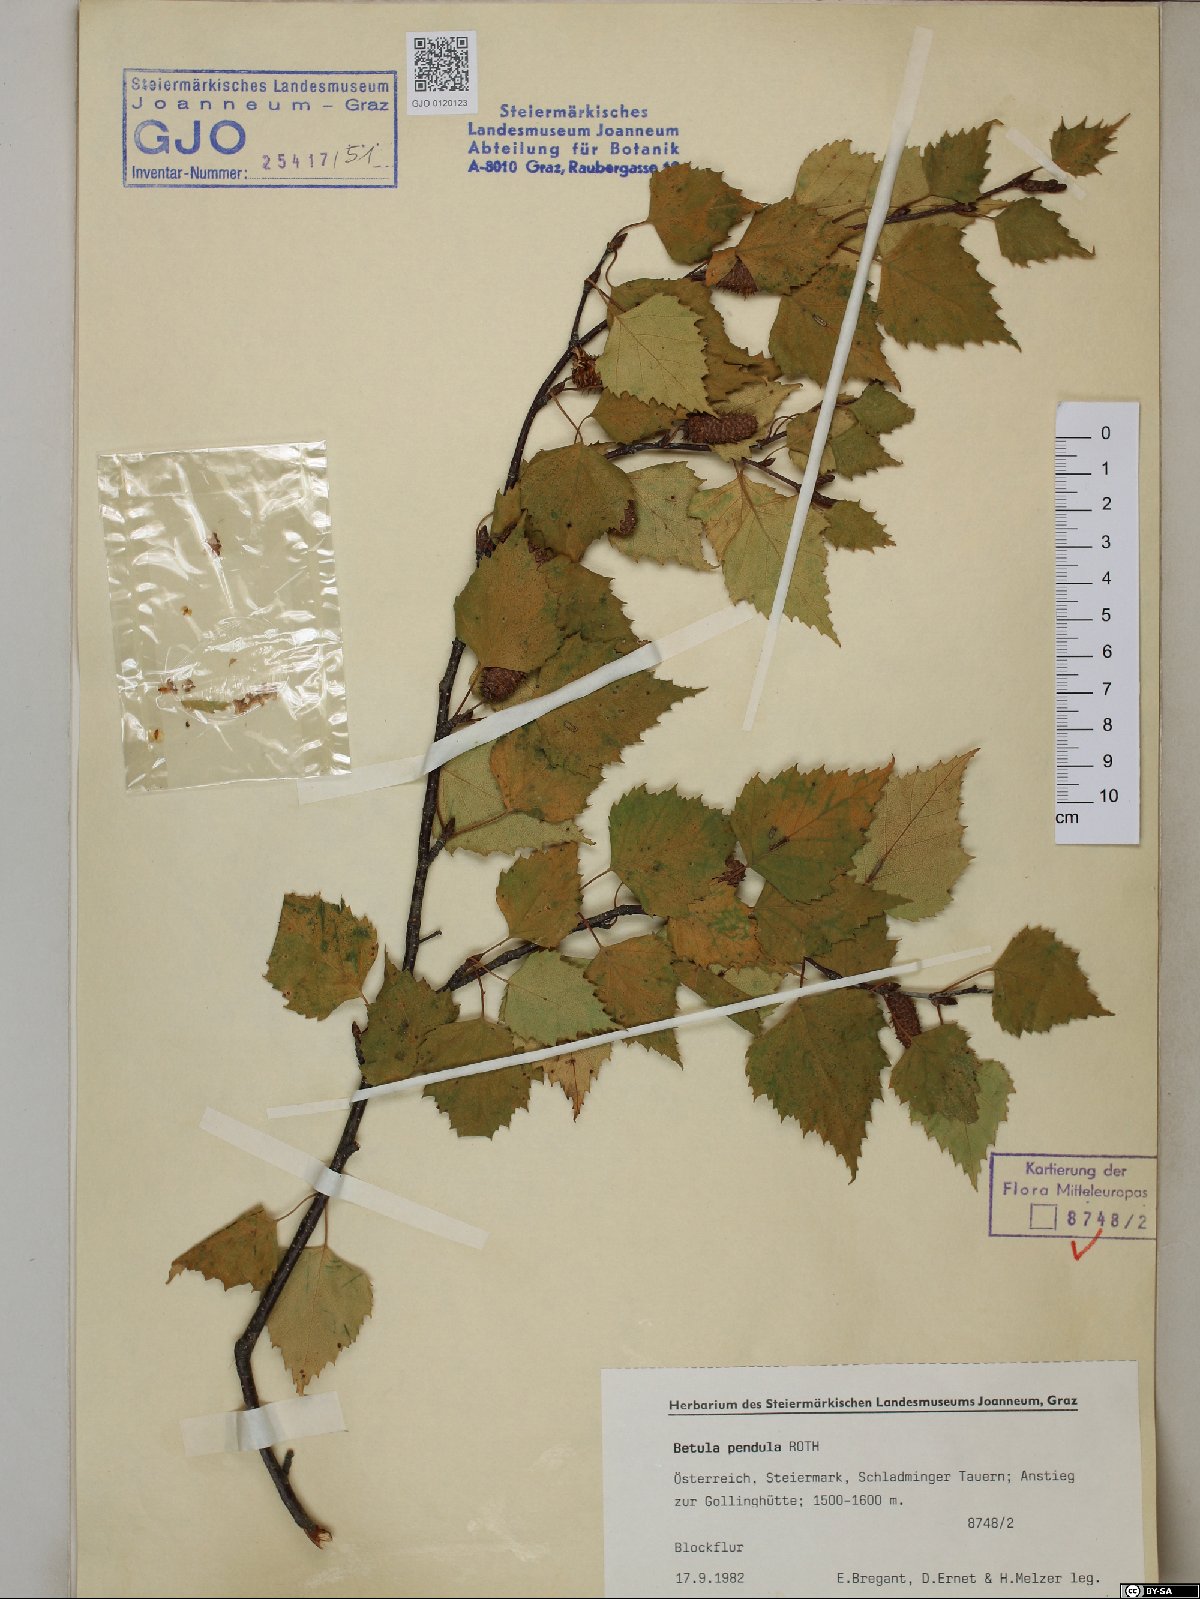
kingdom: Plantae
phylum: Tracheophyta
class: Magnoliopsida
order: Fagales
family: Betulaceae
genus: Betula
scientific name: Betula pendula
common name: Silver birch
